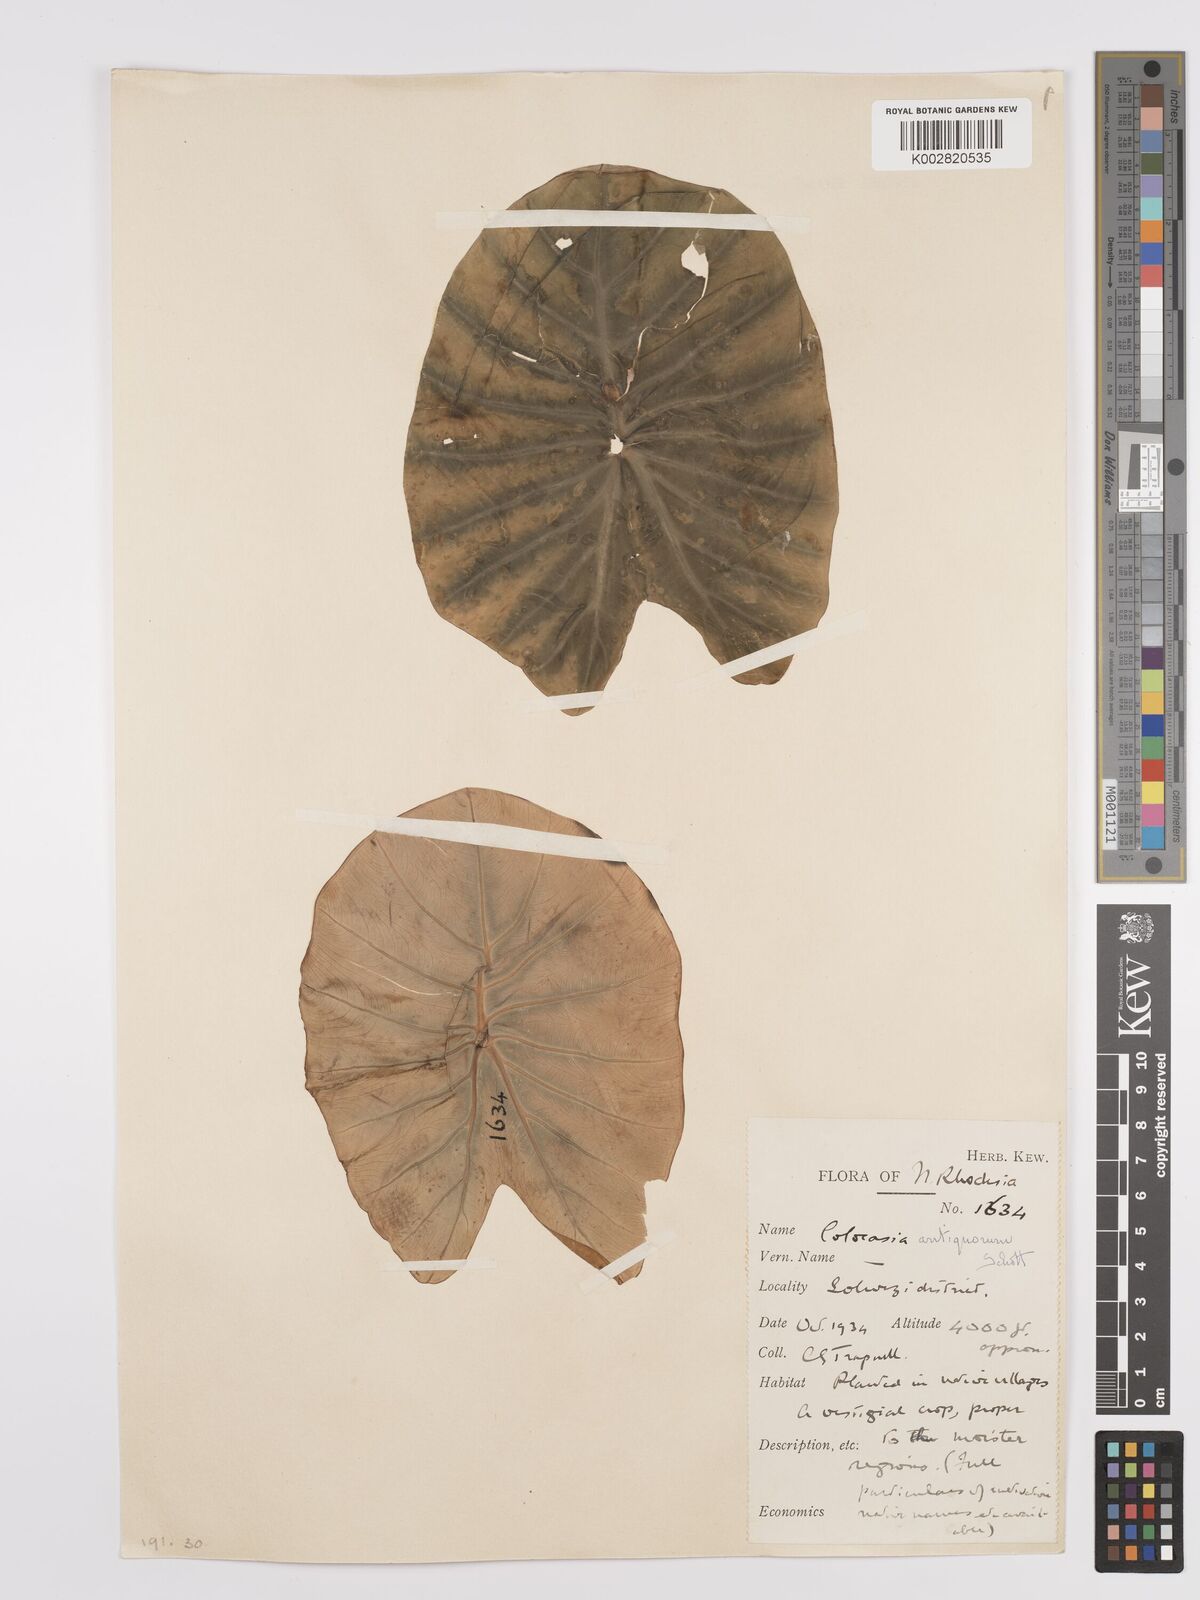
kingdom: Plantae
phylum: Tracheophyta
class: Liliopsida
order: Alismatales
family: Araceae
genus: Colocasia
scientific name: Colocasia esculenta
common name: Taro
